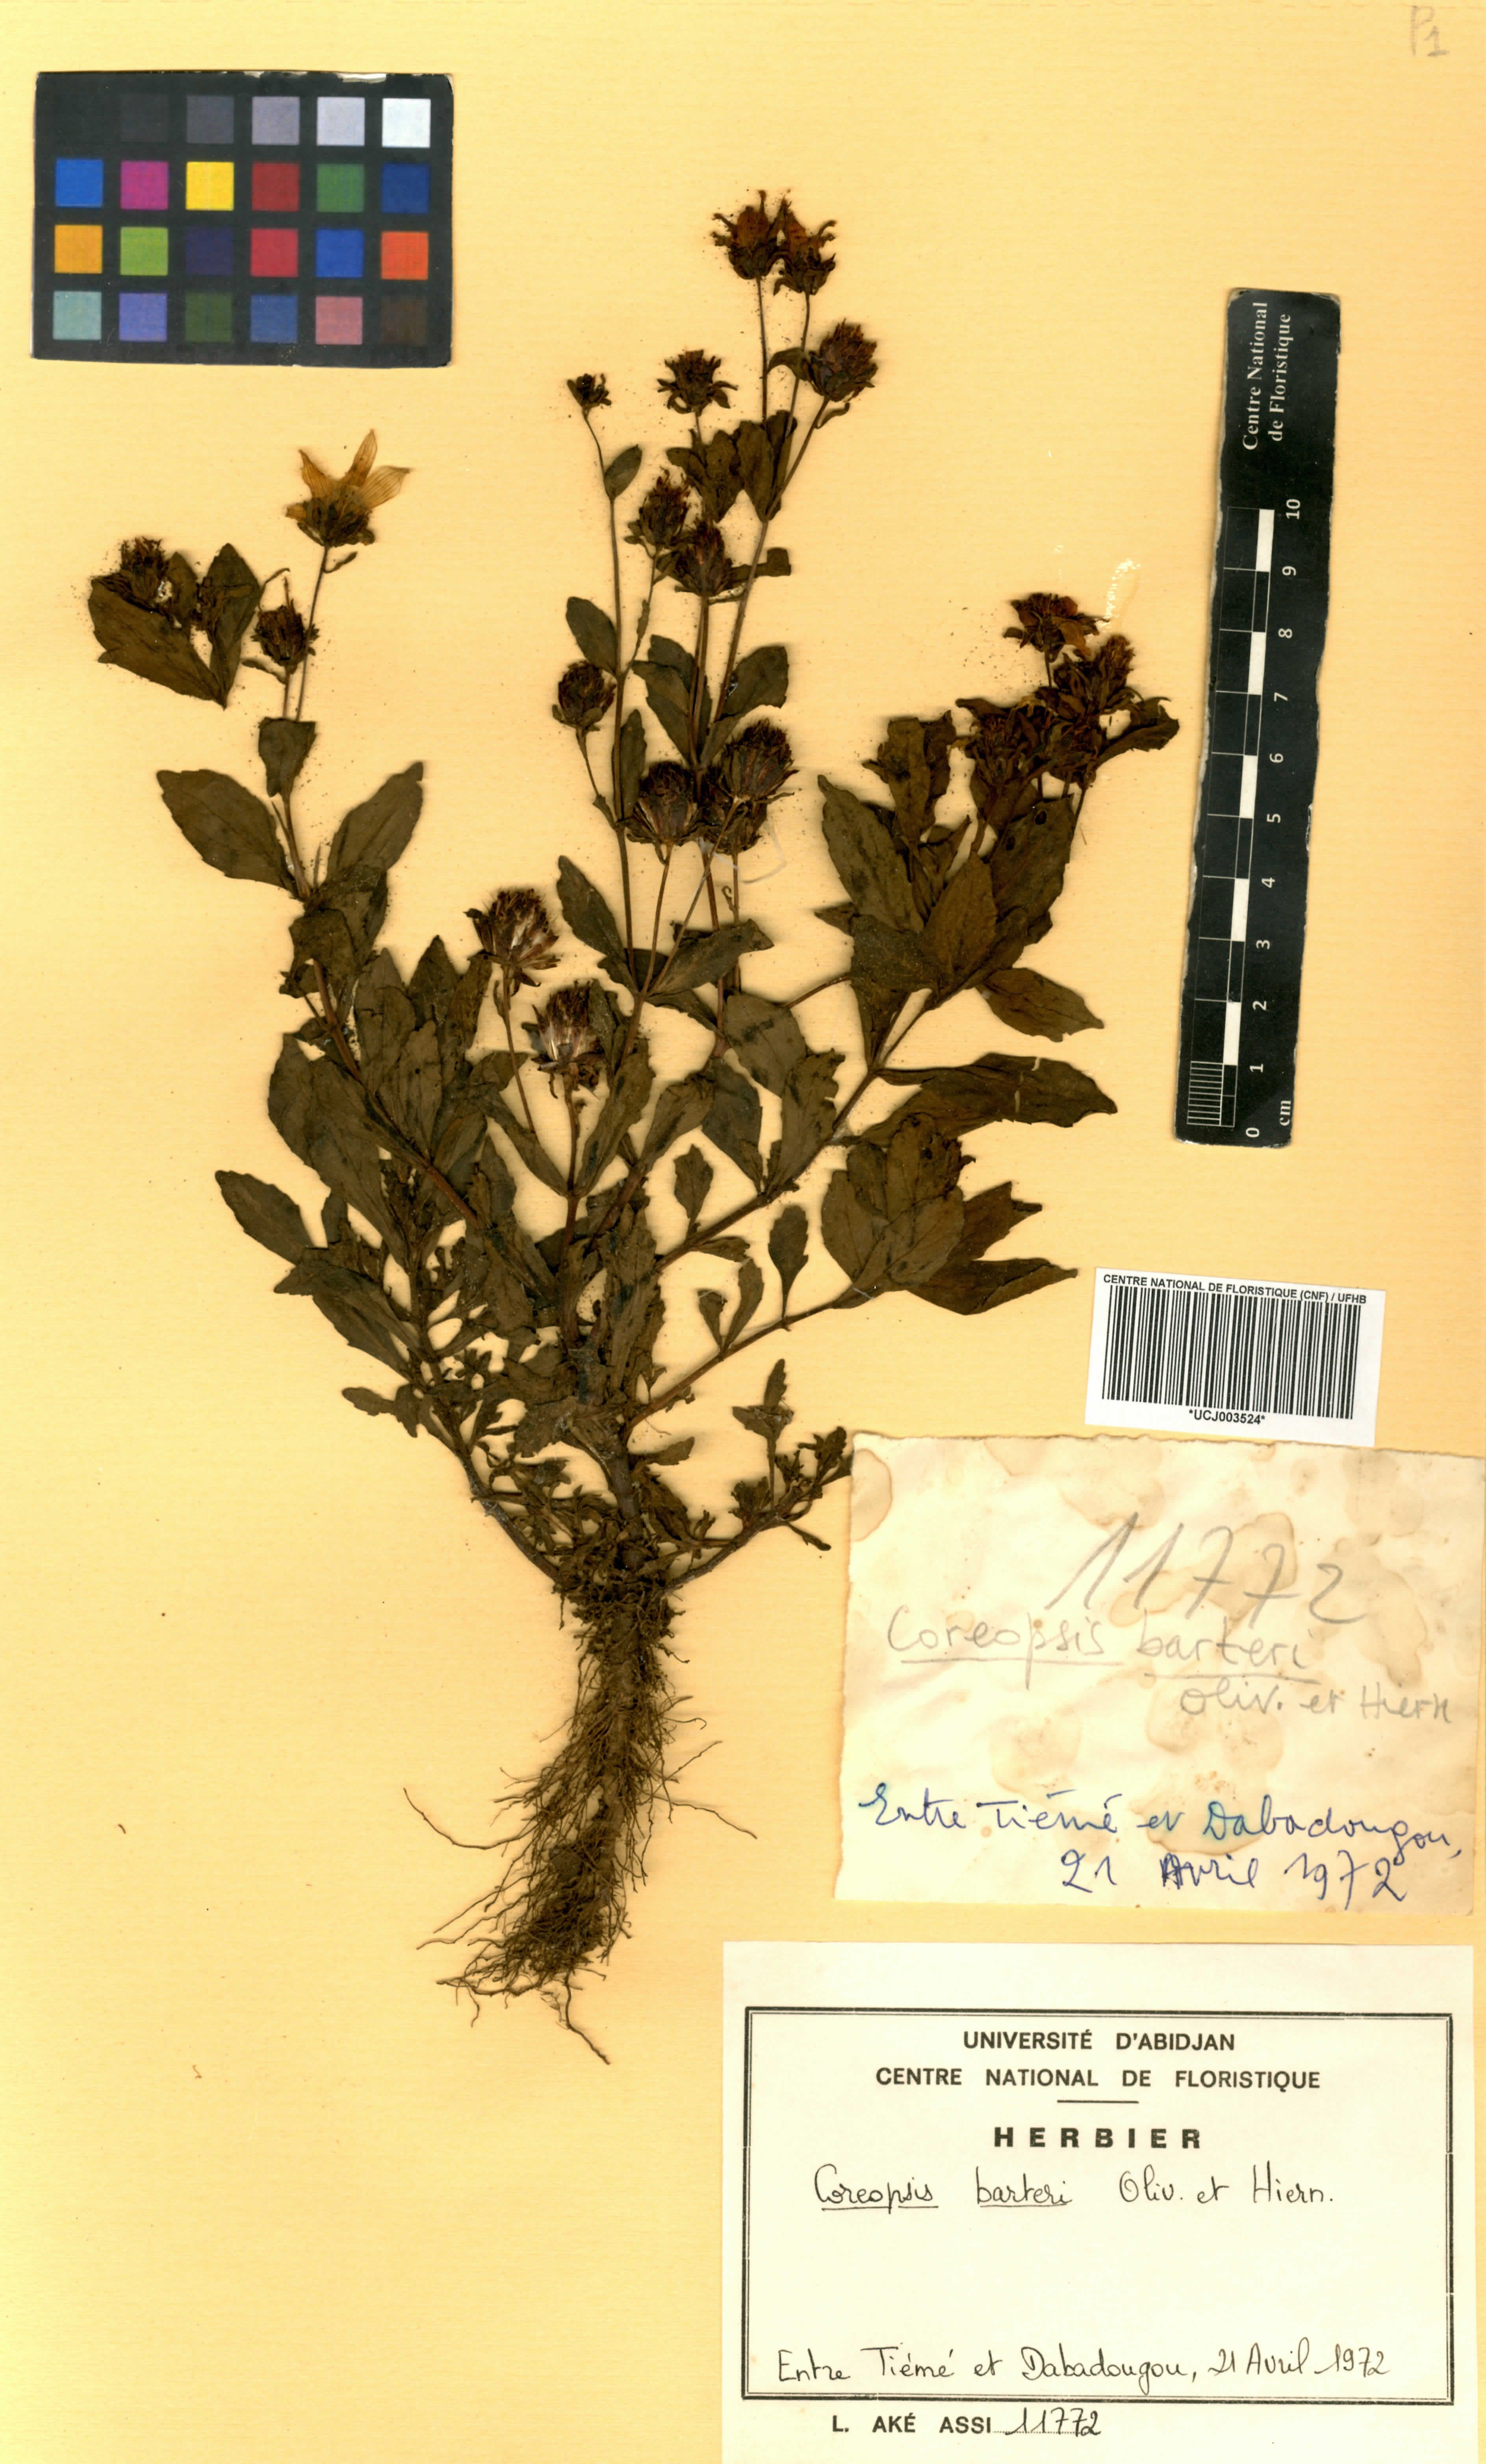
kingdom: Plantae
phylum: Tracheophyta
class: Magnoliopsida
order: Asterales
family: Asteraceae
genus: Bidens
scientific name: Bidens barteri
